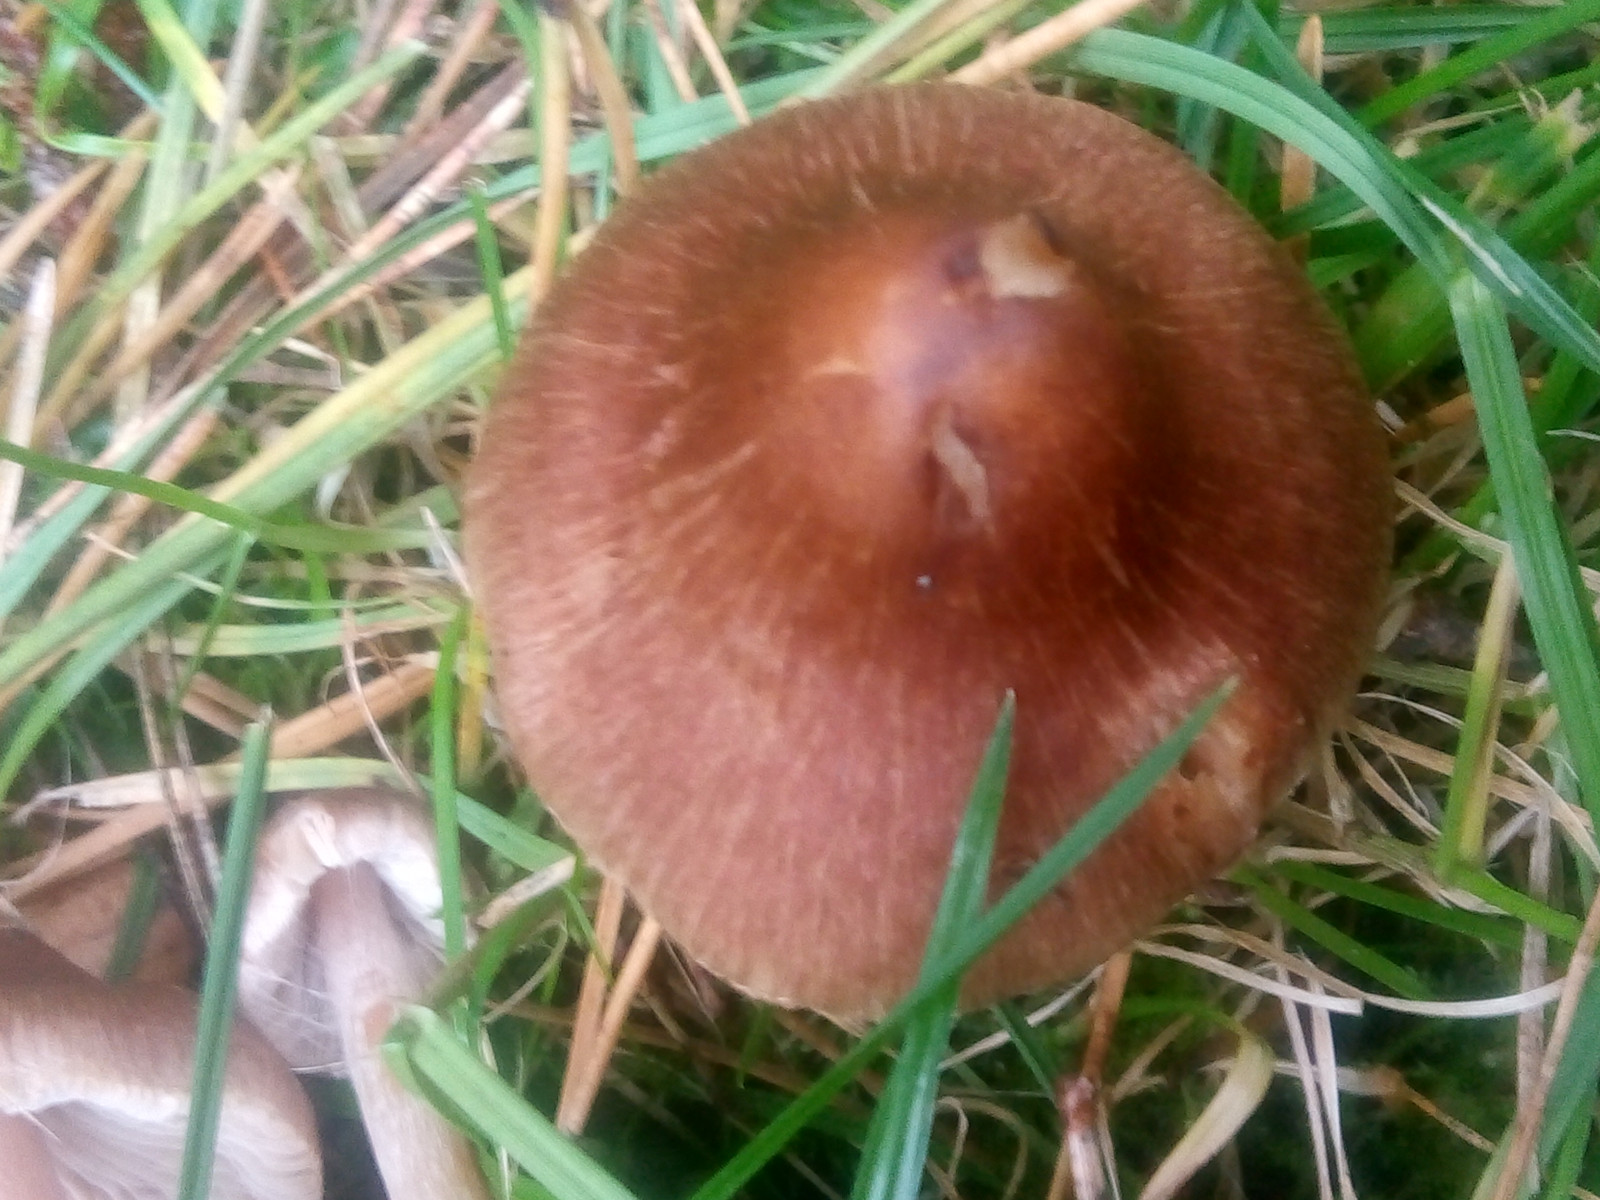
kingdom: Fungi
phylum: Basidiomycota
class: Agaricomycetes
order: Agaricales
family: Inocybaceae
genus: Inocybe
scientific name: Inocybe
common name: trævlhat
